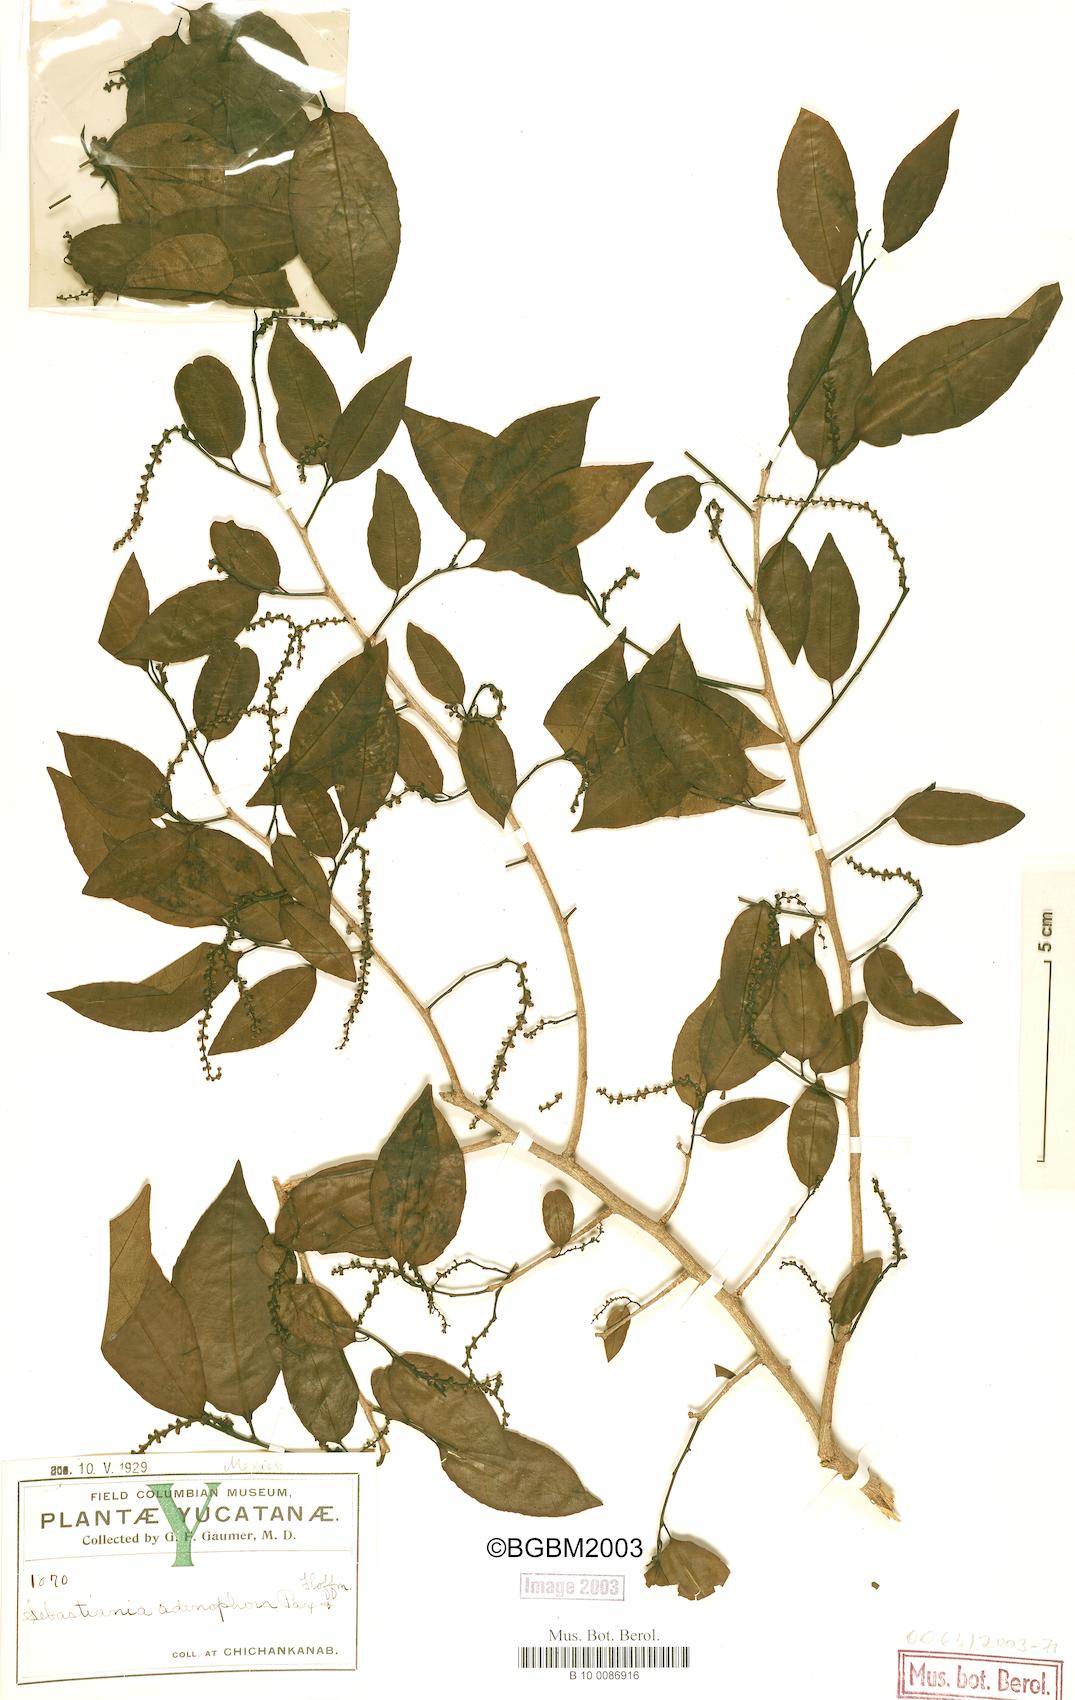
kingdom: Plantae
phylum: Tracheophyta
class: Magnoliopsida
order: Malpighiales
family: Euphorbiaceae
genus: Sebastiania
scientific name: Sebastiania glandulosa
